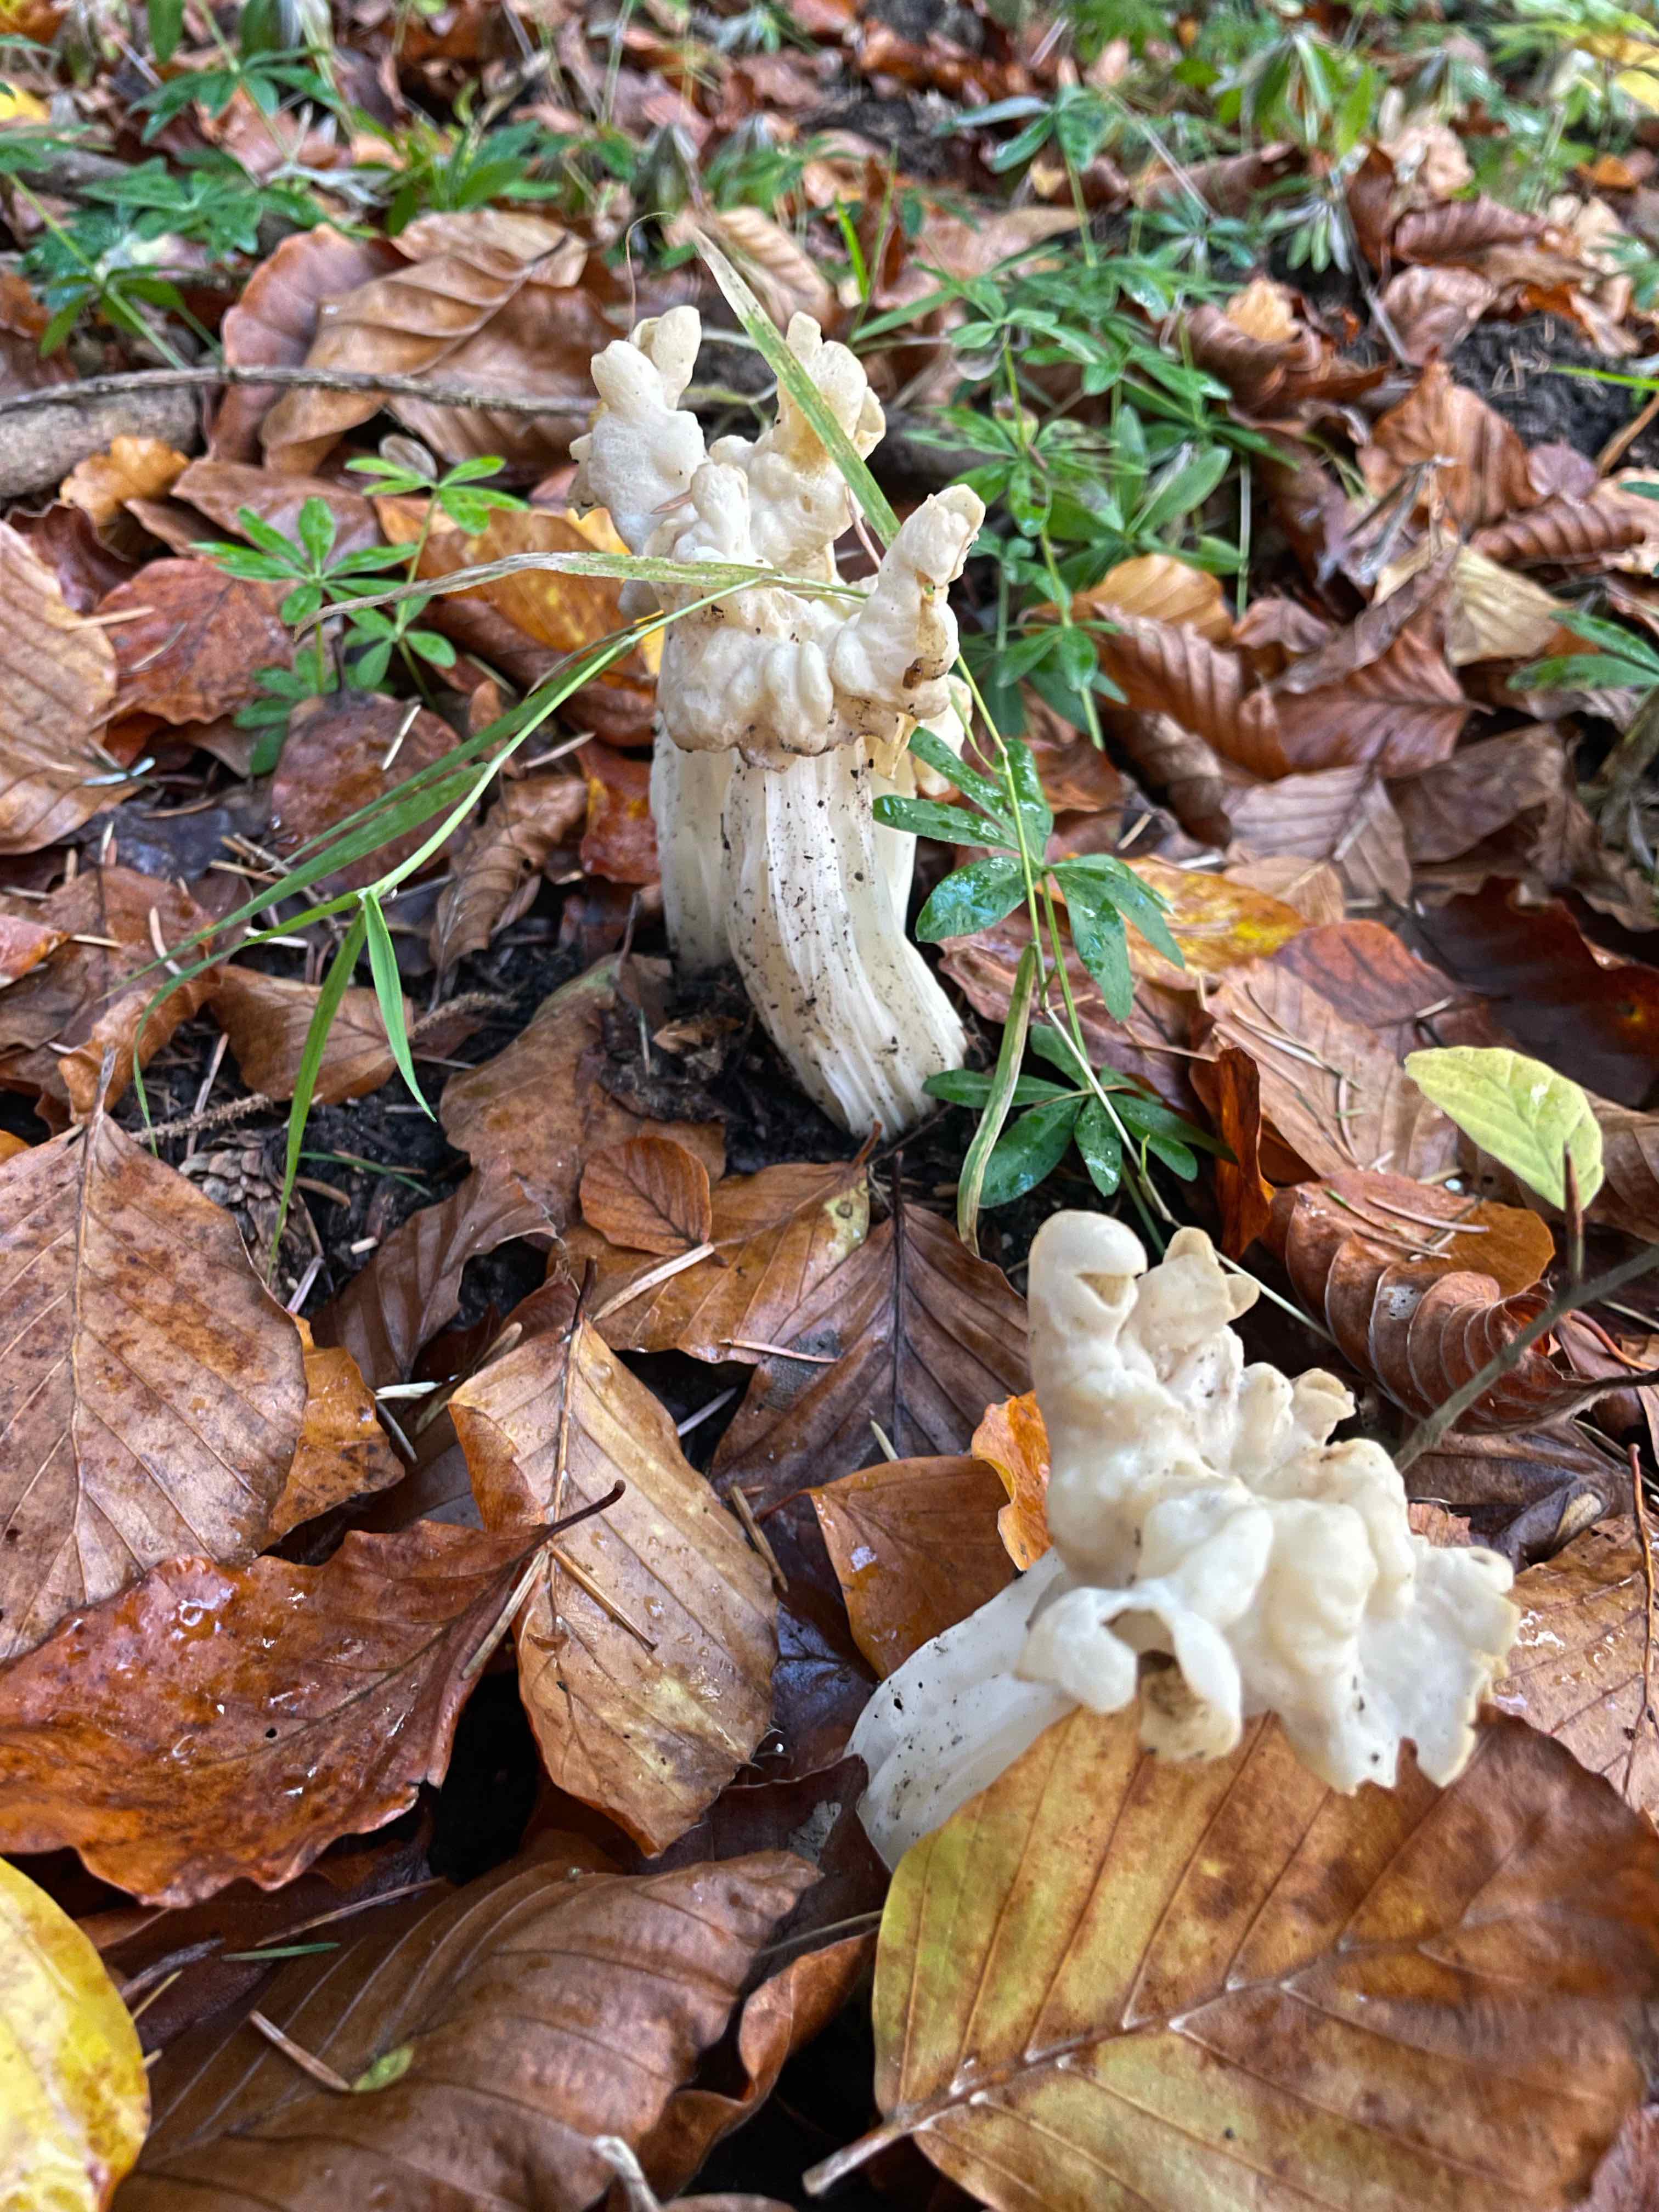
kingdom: Fungi
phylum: Ascomycota
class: Pezizomycetes
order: Pezizales
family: Helvellaceae
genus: Helvella
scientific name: Helvella crispa
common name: kruset foldhat
